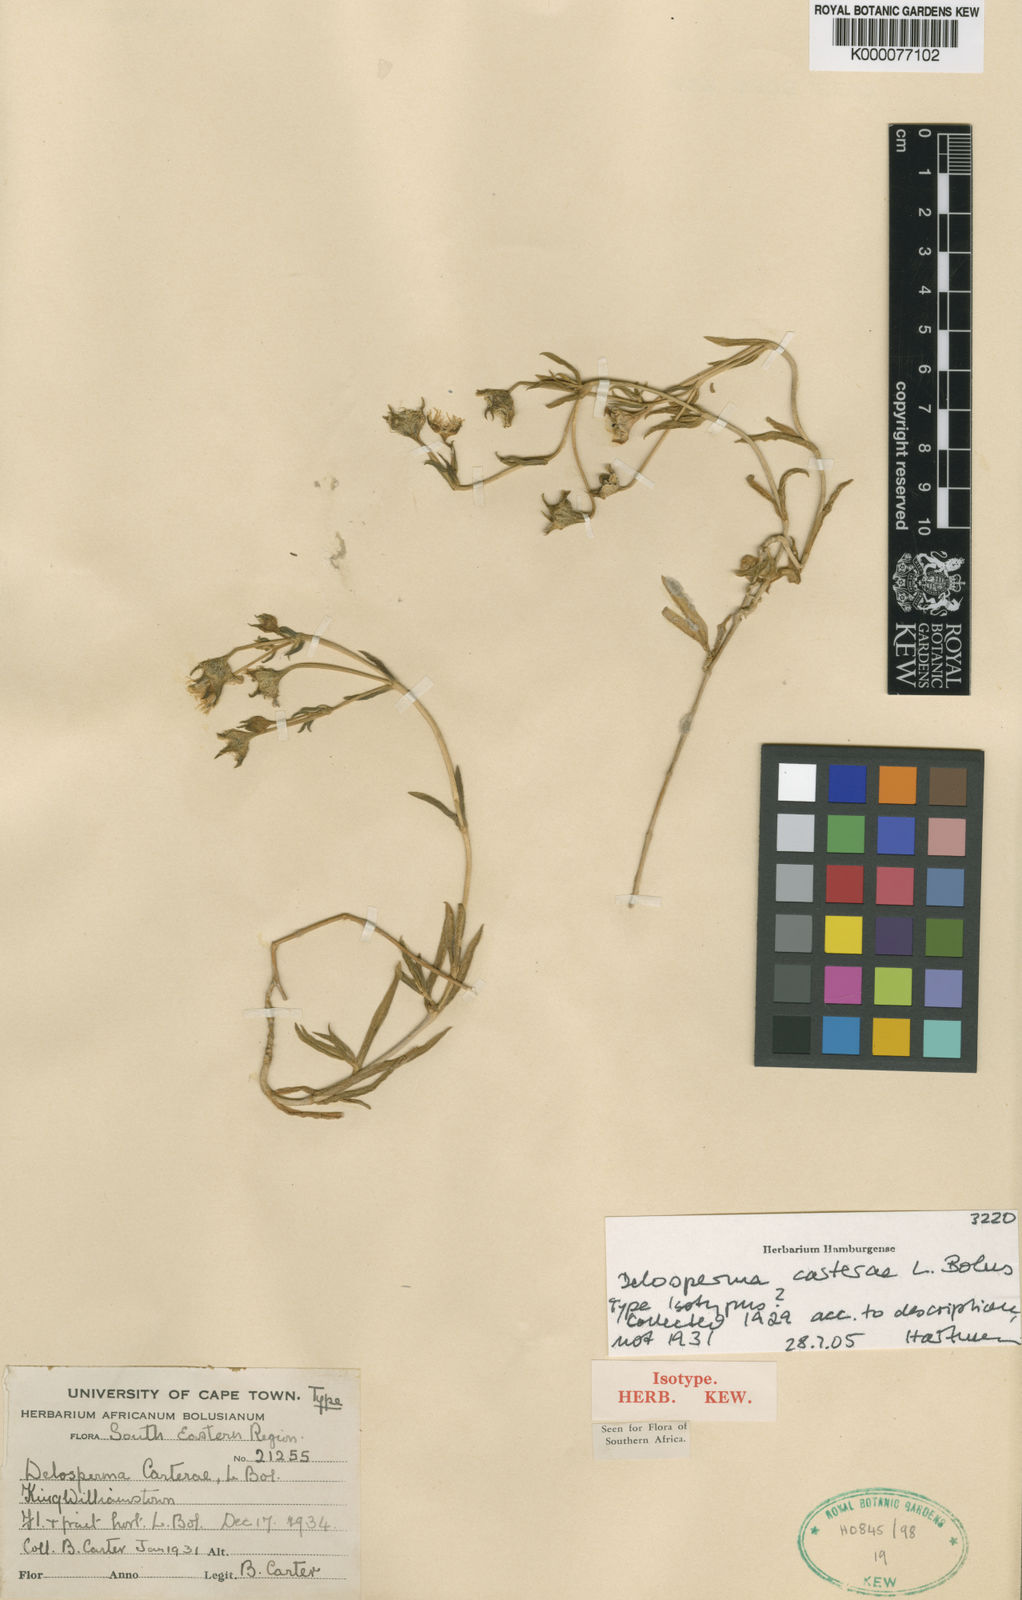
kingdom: Plantae
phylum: Tracheophyta
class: Magnoliopsida
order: Caryophyllales
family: Aizoaceae
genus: Delosperma
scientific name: Delosperma carterae
